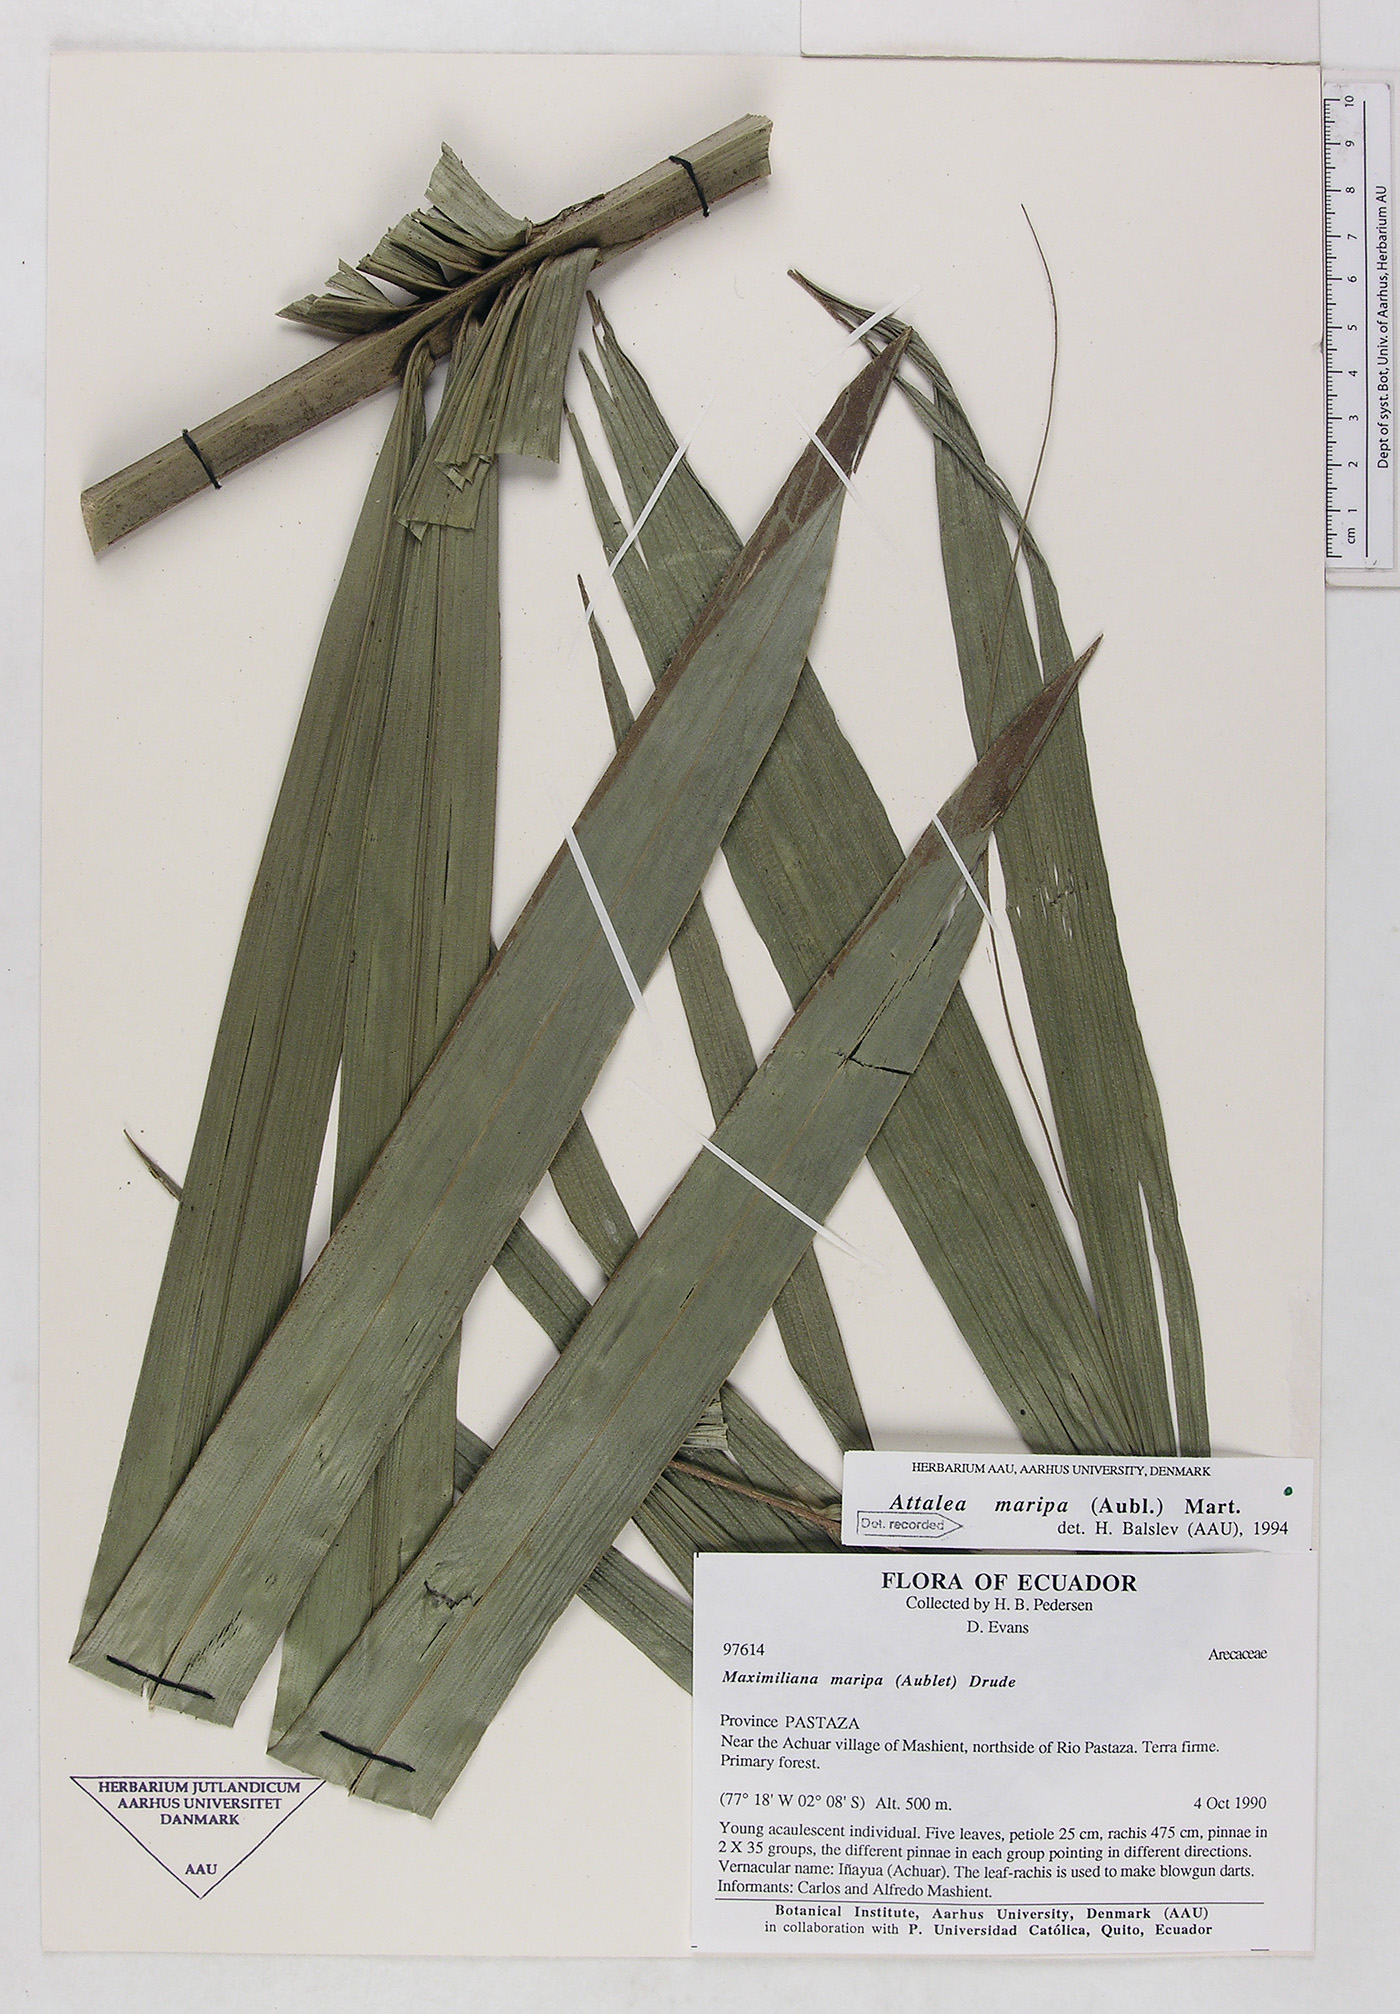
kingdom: Plantae
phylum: Tracheophyta
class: Liliopsida
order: Arecales
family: Arecaceae
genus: Attalea
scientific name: Attalea maripa
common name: Maripa palm
